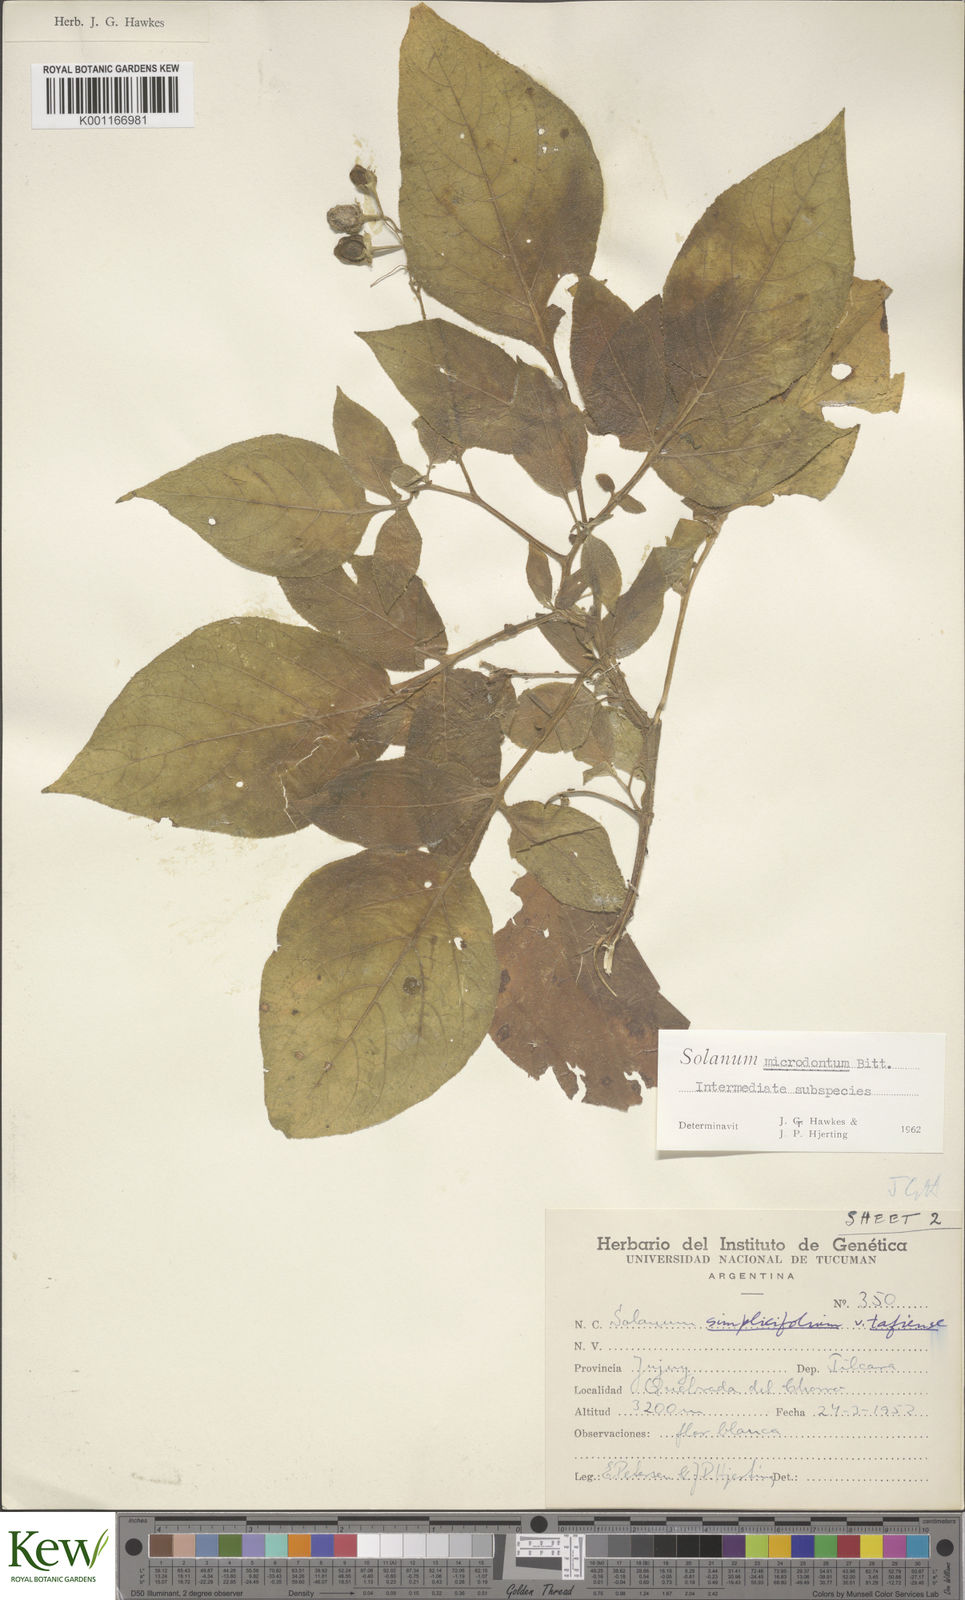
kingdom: Plantae
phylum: Tracheophyta
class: Magnoliopsida
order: Solanales
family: Solanaceae
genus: Solanum
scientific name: Solanum microdontum
